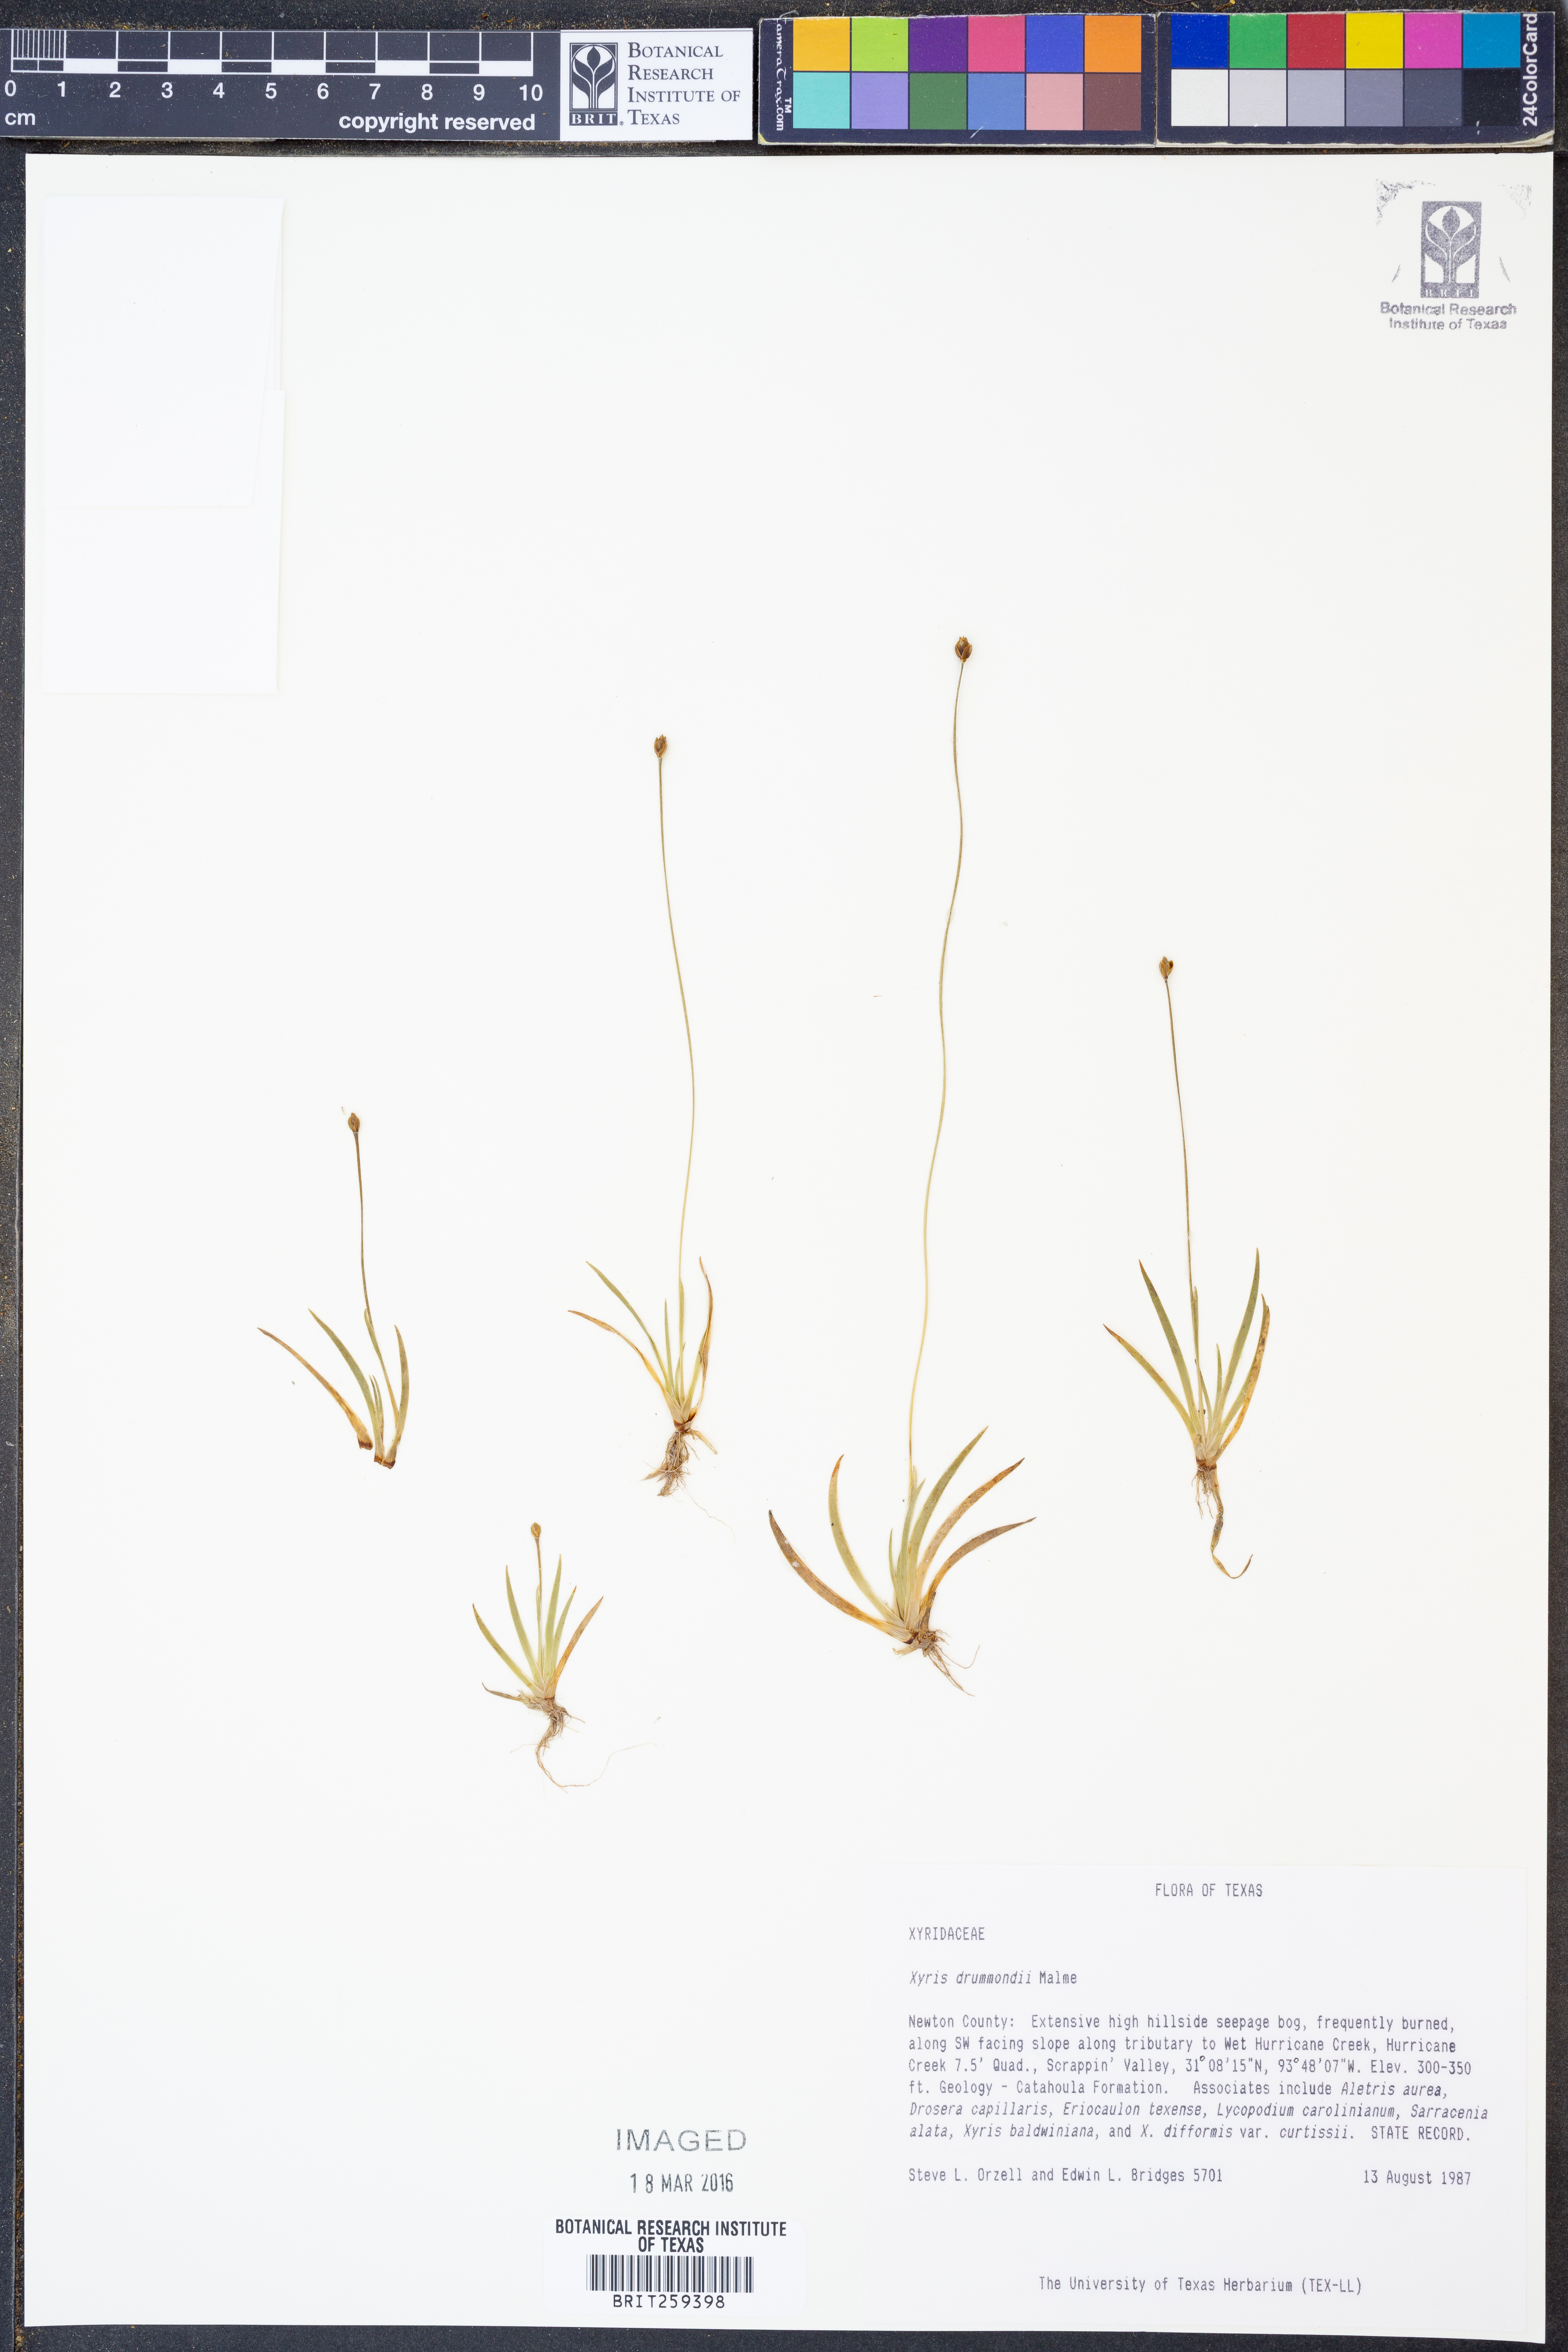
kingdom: Plantae
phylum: Tracheophyta
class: Liliopsida
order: Poales
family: Xyridaceae
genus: Xyris
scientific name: Xyris drummondii
